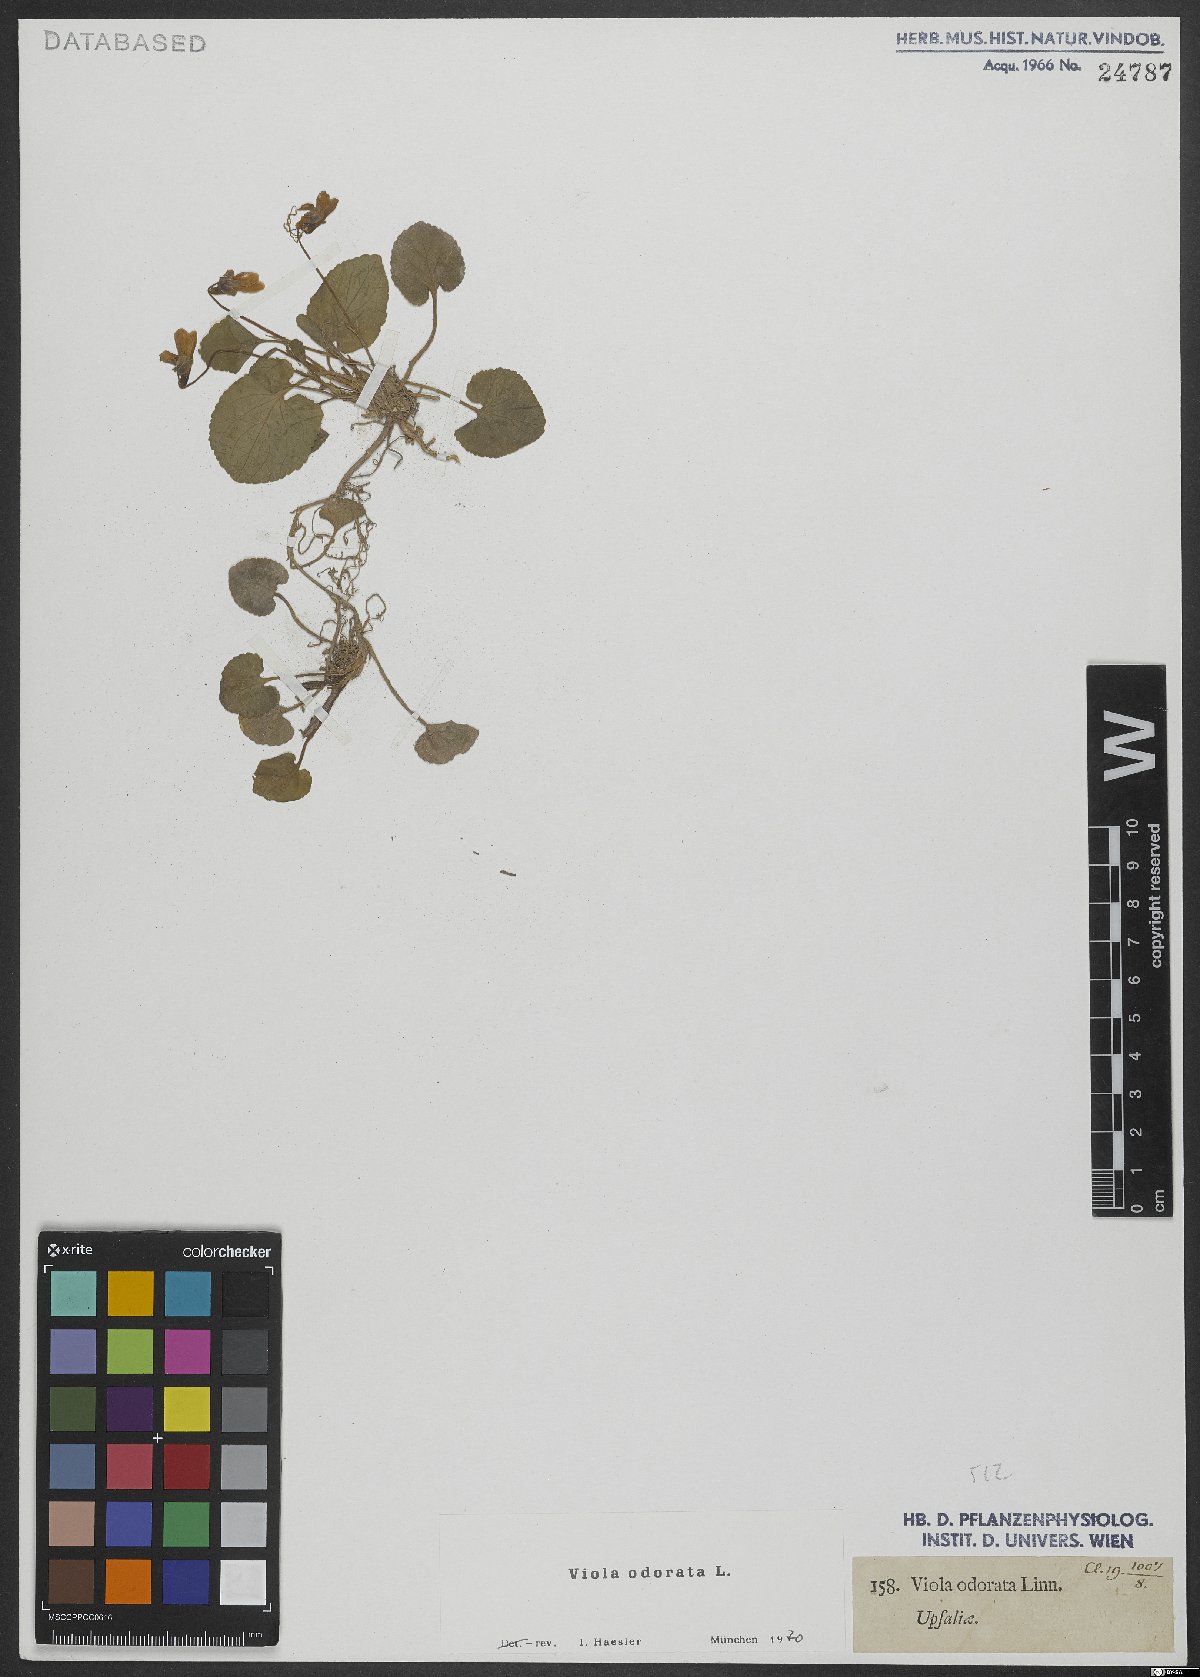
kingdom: Plantae
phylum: Tracheophyta
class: Magnoliopsida
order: Malpighiales
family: Violaceae
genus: Viola
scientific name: Viola odorata
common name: Sweet violet
